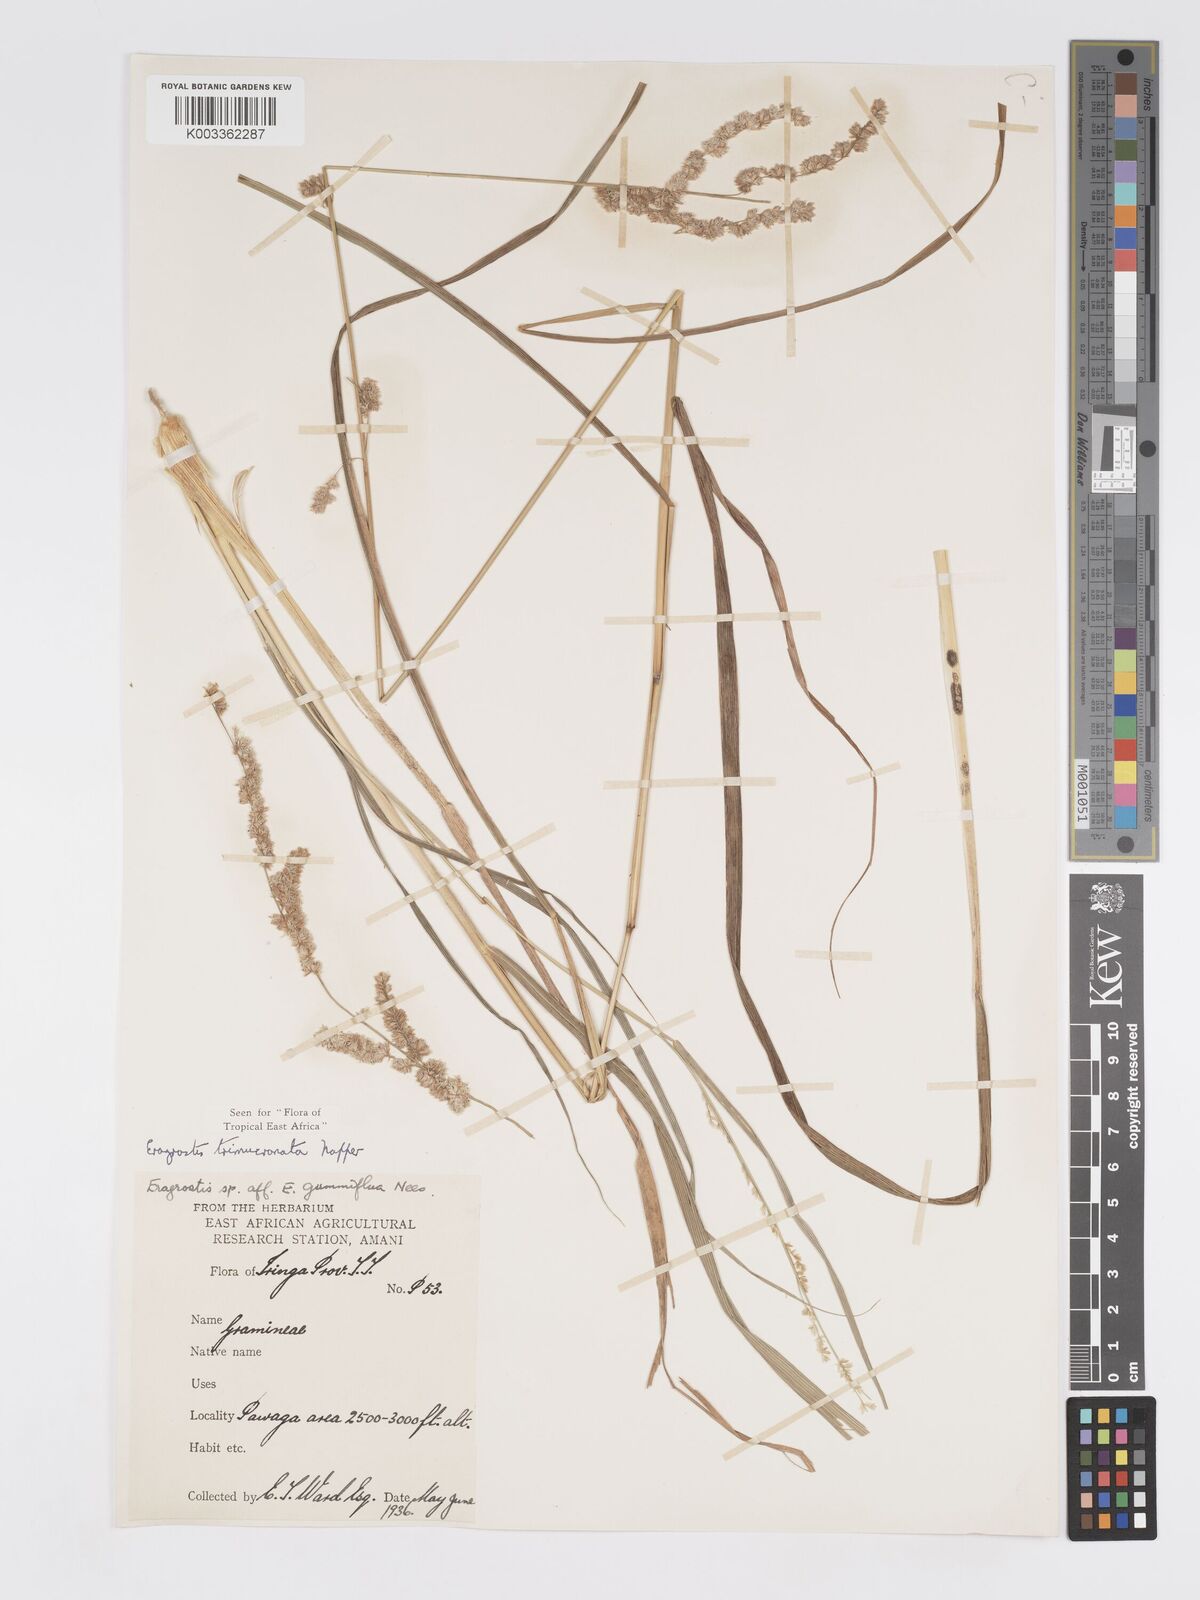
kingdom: Plantae
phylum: Tracheophyta
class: Liliopsida
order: Poales
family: Poaceae
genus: Eragrostis
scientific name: Eragrostis trimucronata
